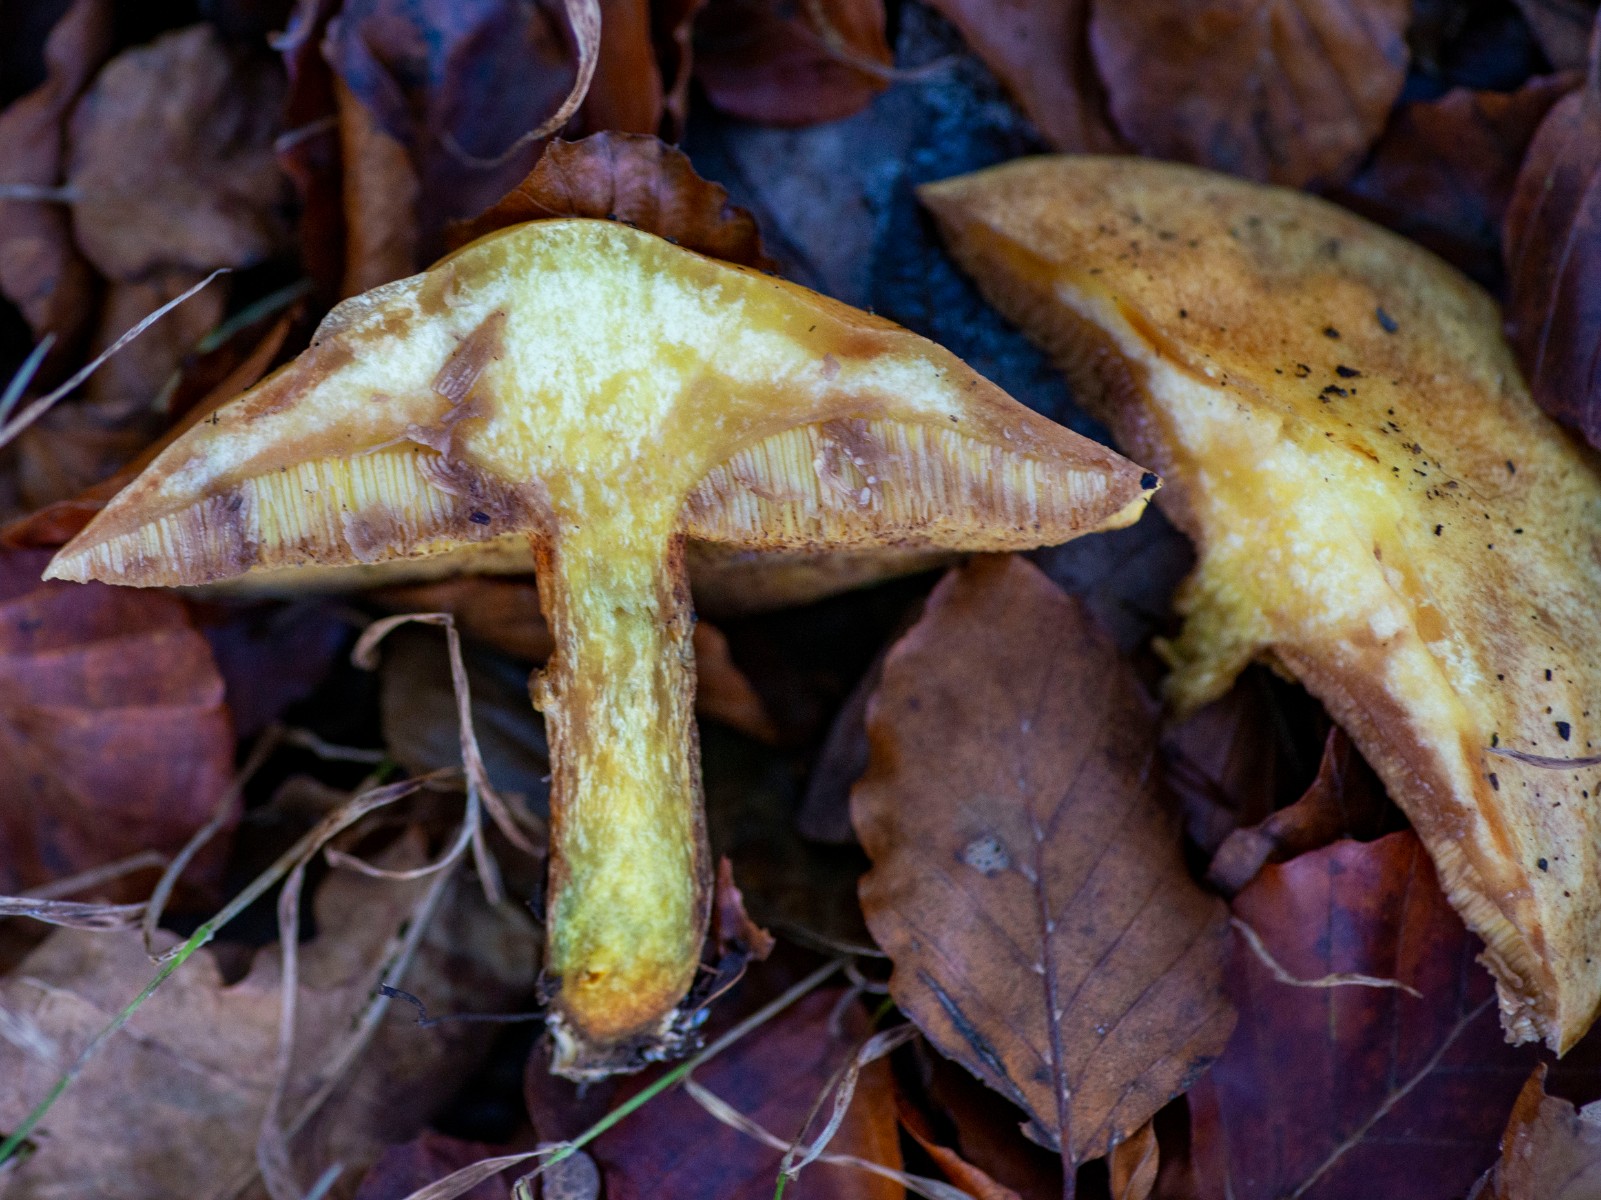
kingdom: Fungi
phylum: Basidiomycota
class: Agaricomycetes
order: Boletales
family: Suillaceae
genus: Suillus
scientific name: Suillus grevillei
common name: lærke-slimrørhat
